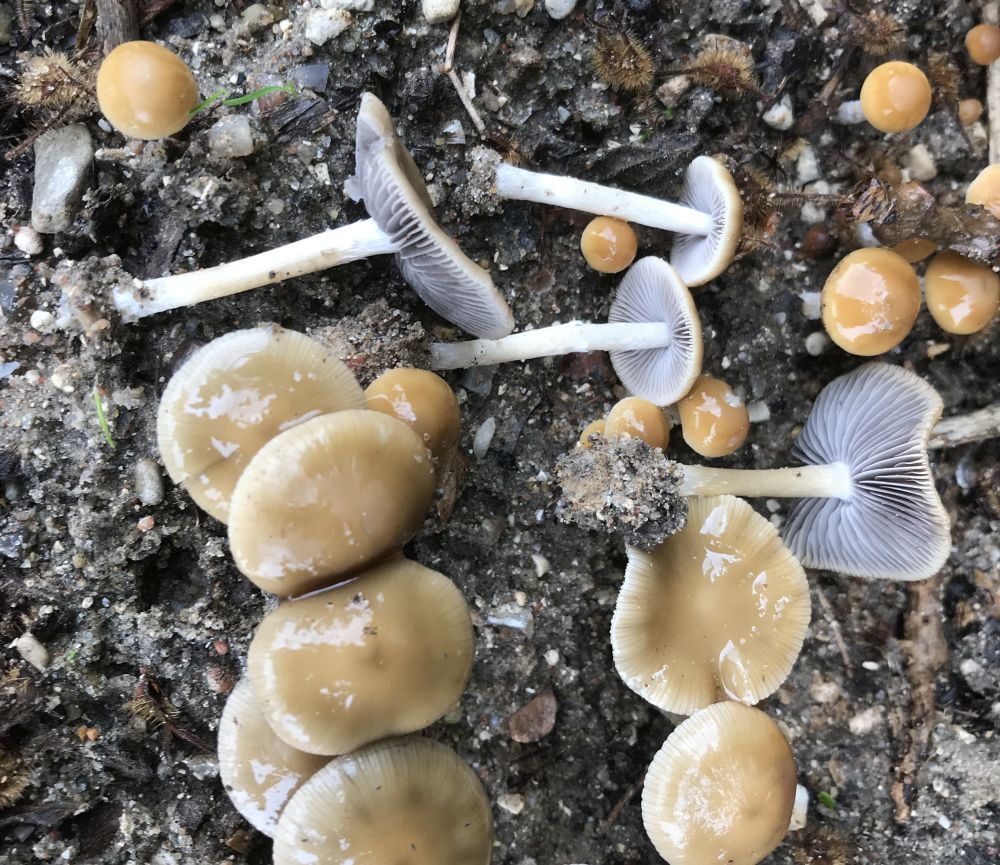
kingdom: Fungi
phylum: Basidiomycota
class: Agaricomycetes
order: Agaricales
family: Psathyrellaceae
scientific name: Psathyrellaceae
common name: mørkhatfamilien
